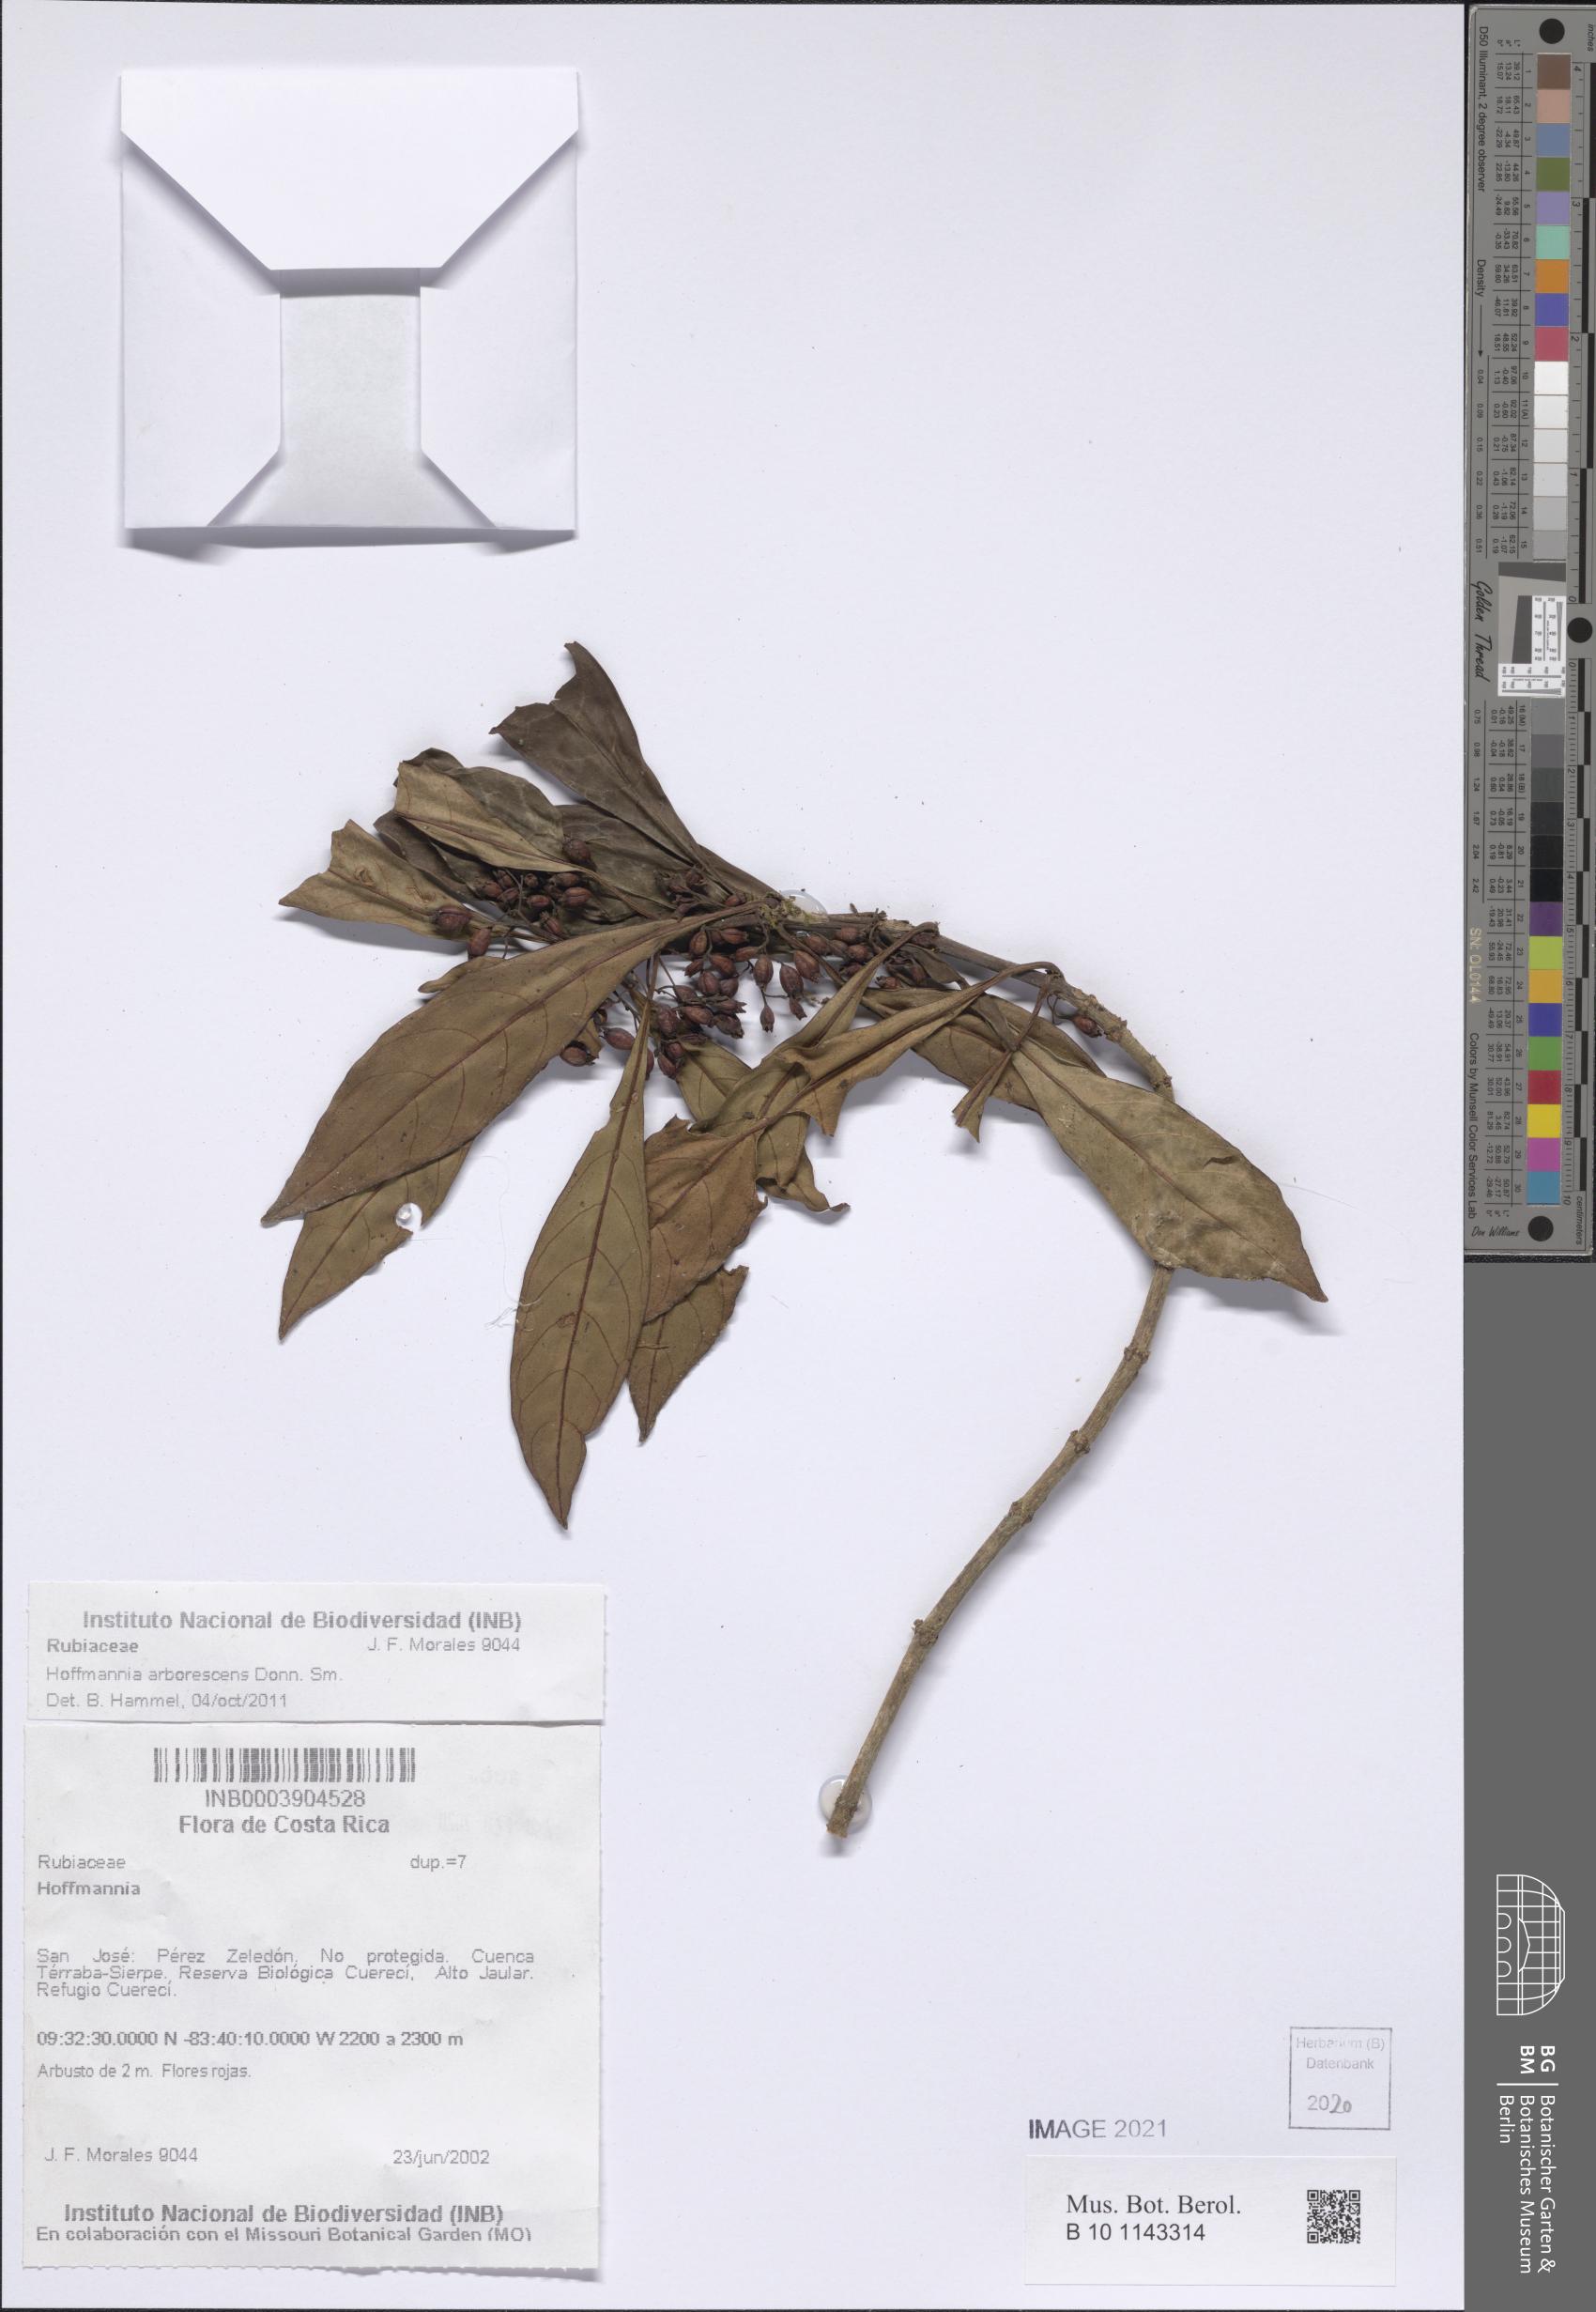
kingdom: Plantae
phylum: Tracheophyta
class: Magnoliopsida
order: Gentianales
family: Rubiaceae
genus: Hoffmannia
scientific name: Hoffmannia arborescens
